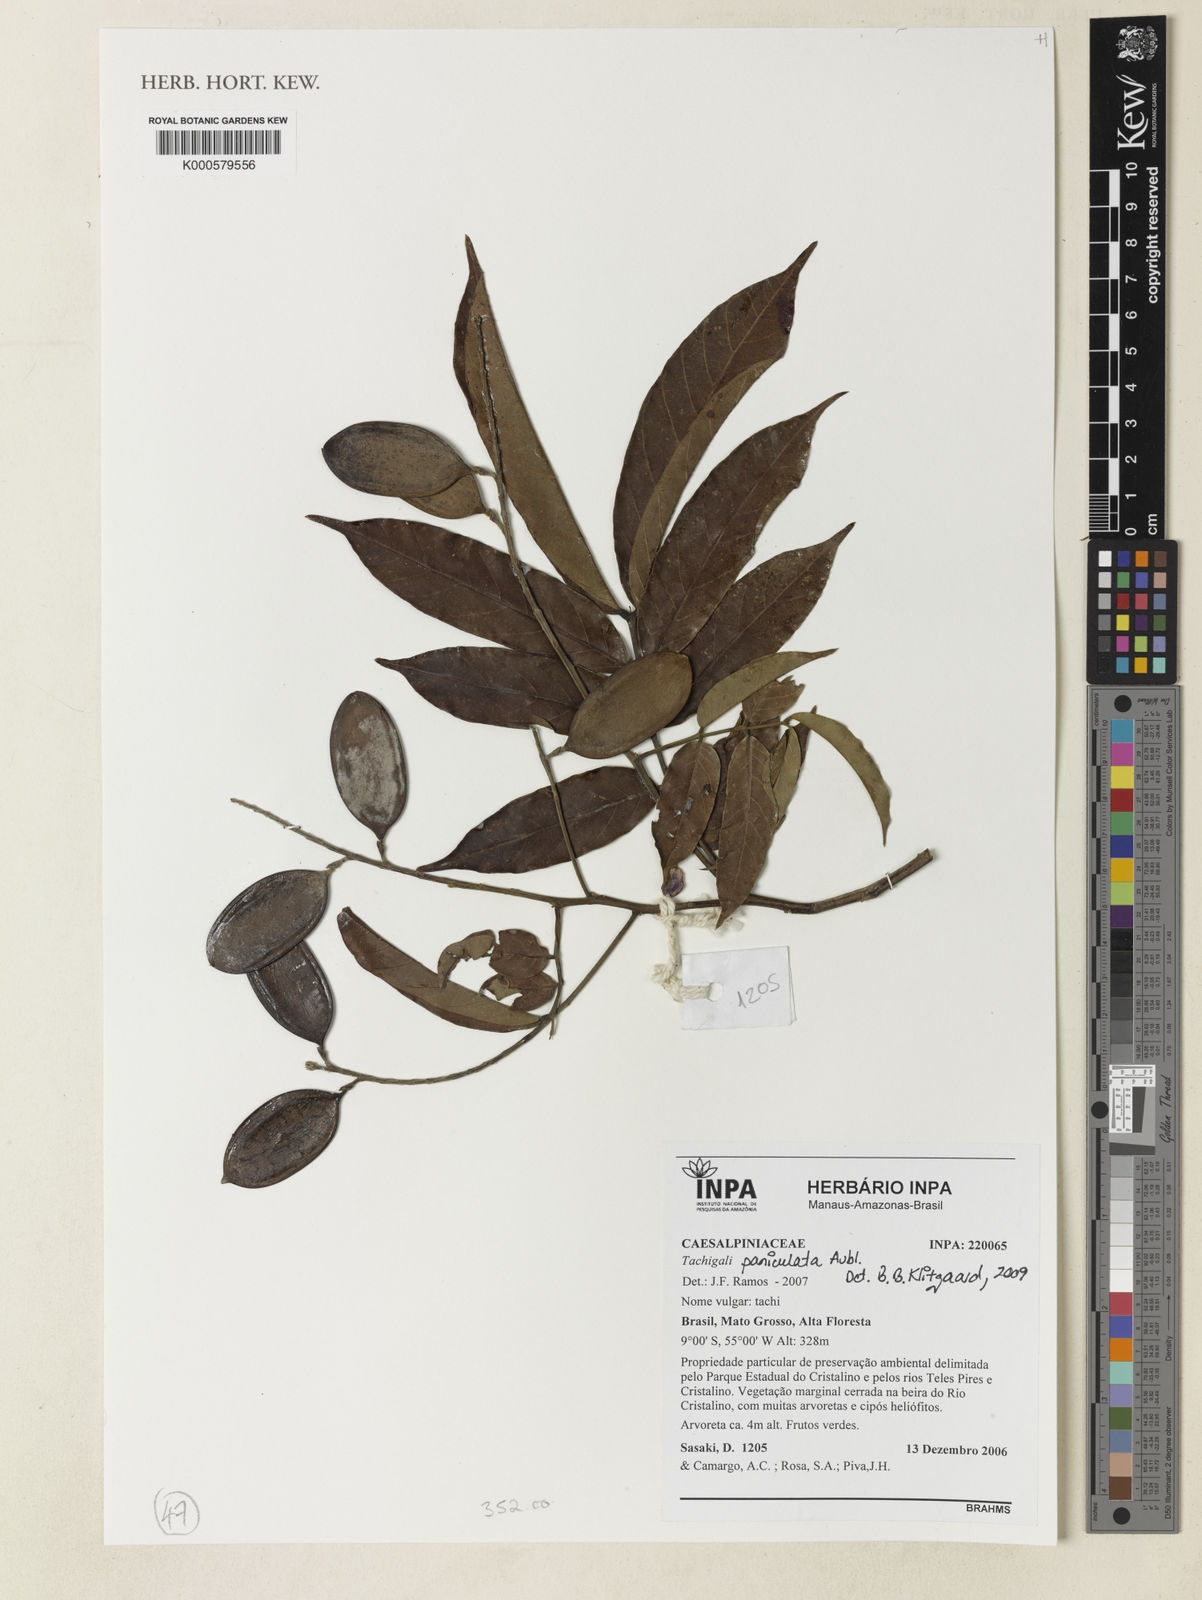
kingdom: Plantae
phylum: Tracheophyta
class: Magnoliopsida
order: Fabales
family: Fabaceae
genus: Tachigali
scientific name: Tachigali paniculata
